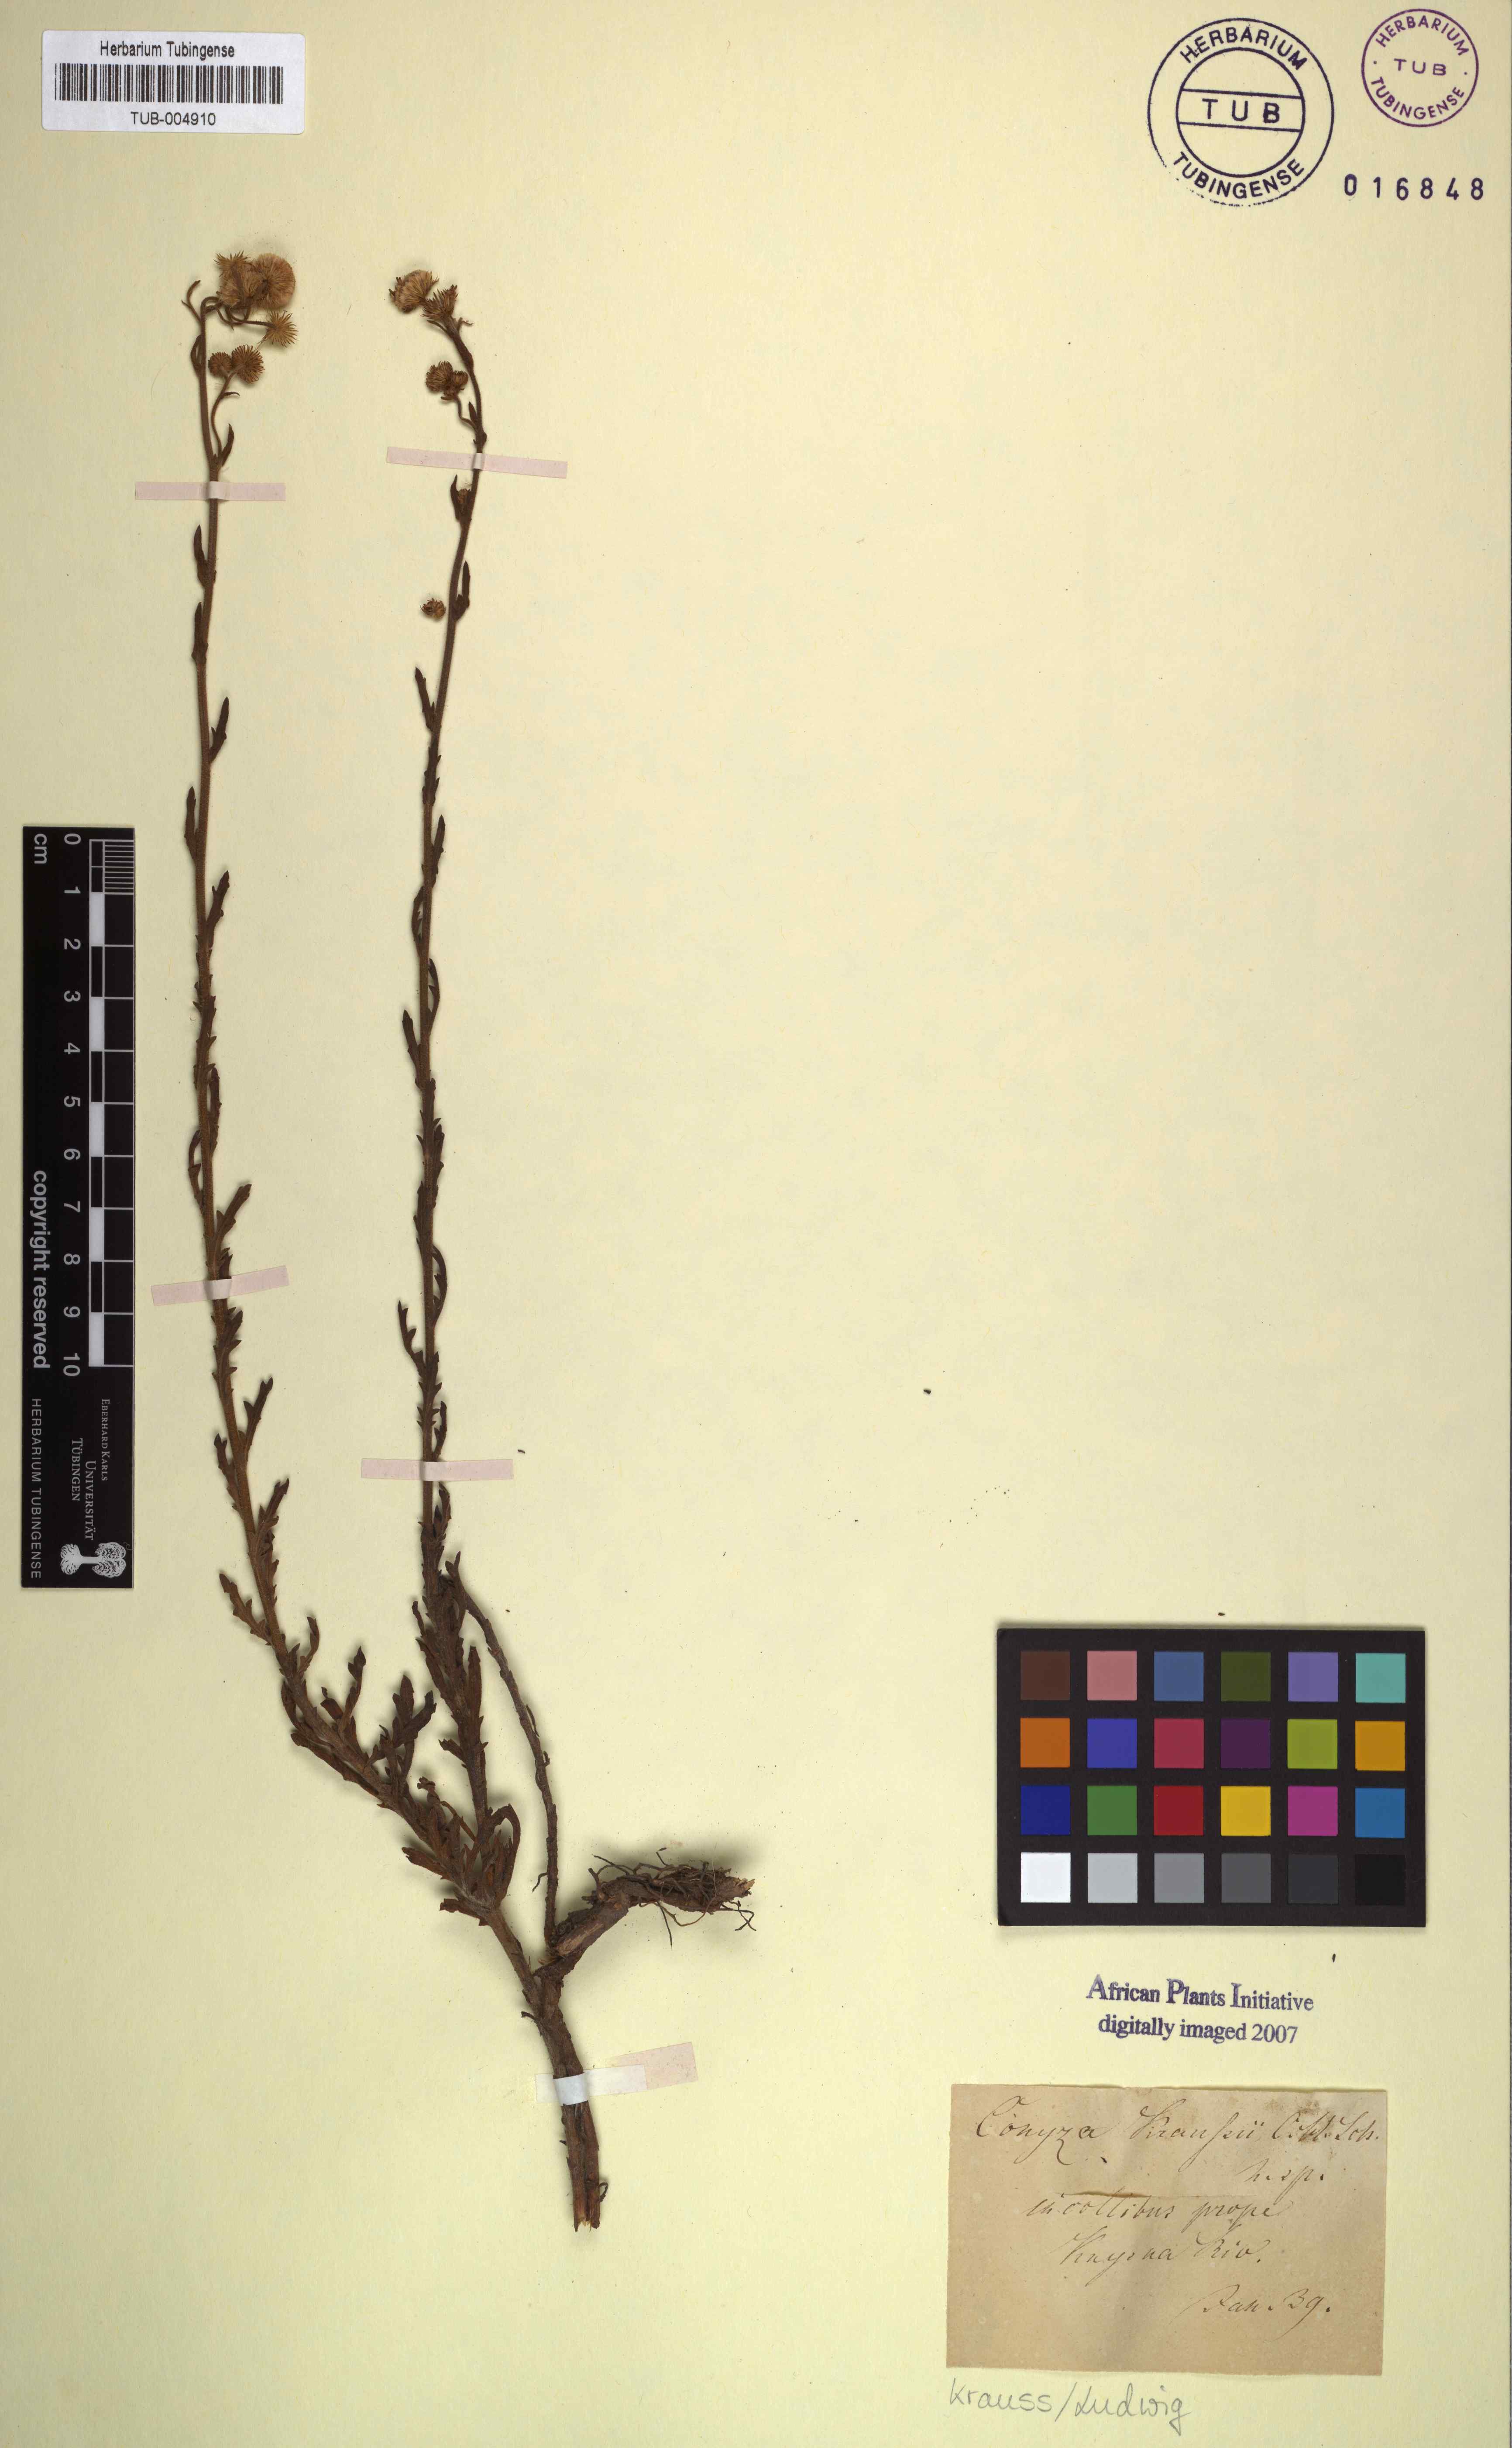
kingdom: Plantae
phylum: Tracheophyta
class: Magnoliopsida
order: Asterales
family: Asteraceae
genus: Conyza
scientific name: Conyza kraussii
